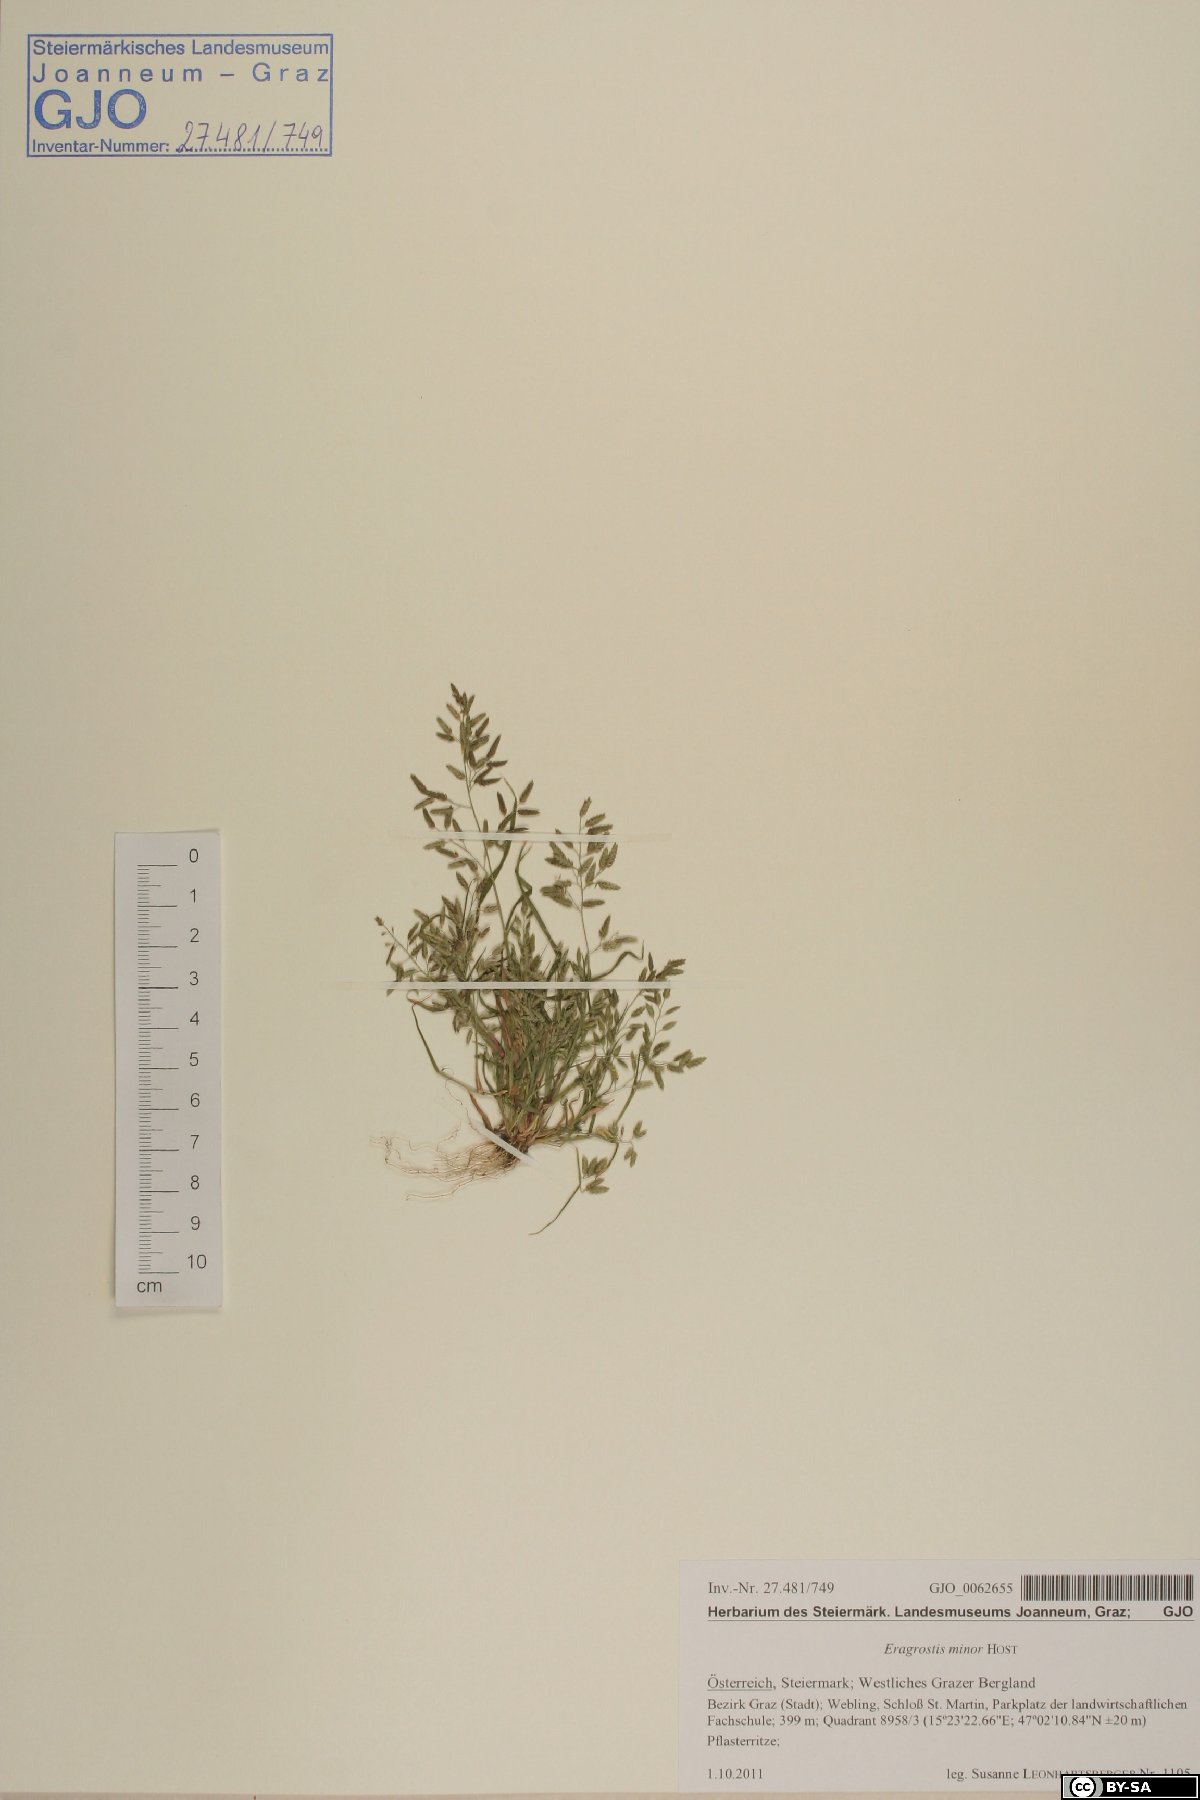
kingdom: Plantae
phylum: Tracheophyta
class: Liliopsida
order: Poales
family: Poaceae
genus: Eragrostis
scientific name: Eragrostis minor
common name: Small love-grass
